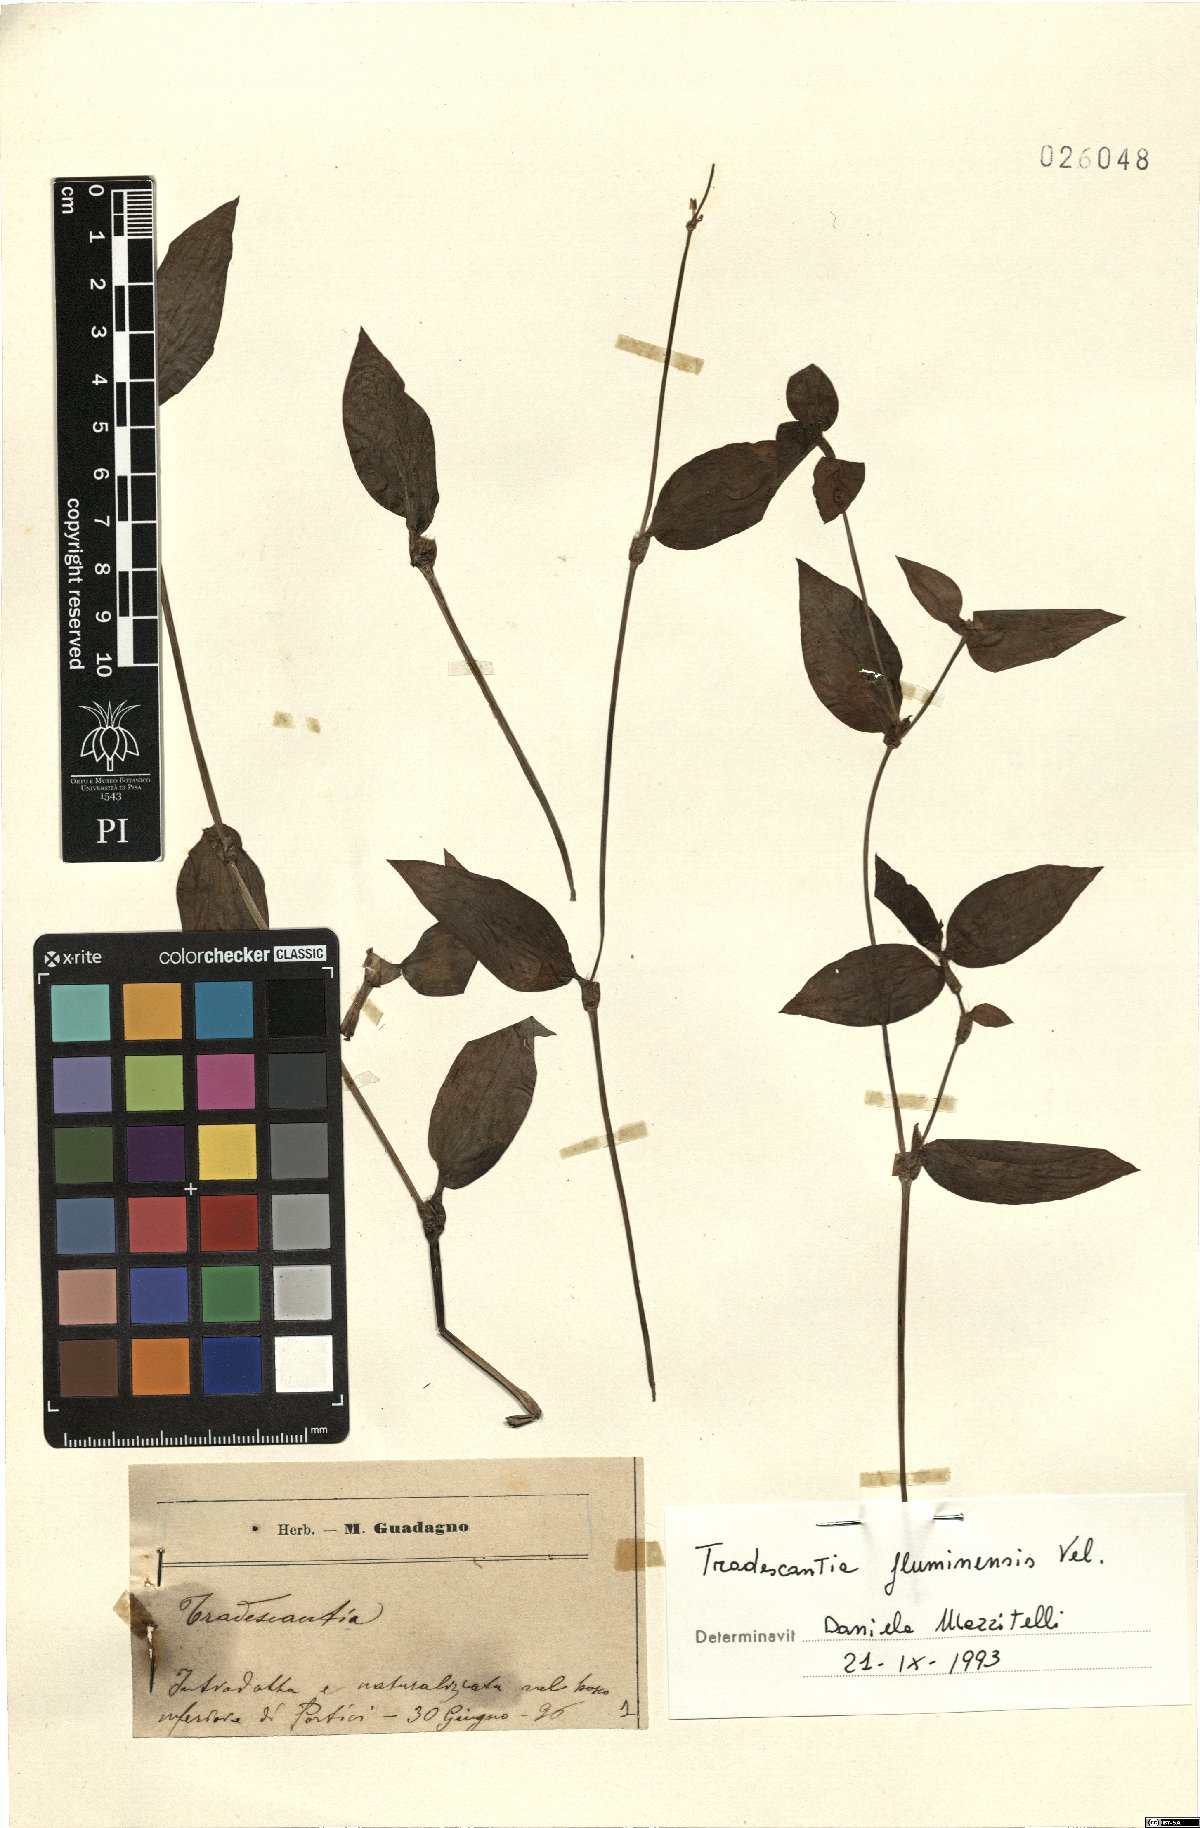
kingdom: Plantae
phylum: Tracheophyta
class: Liliopsida
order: Commelinales
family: Commelinaceae
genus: Tradescantia
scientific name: Tradescantia fluminensis
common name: Wandering-jew
